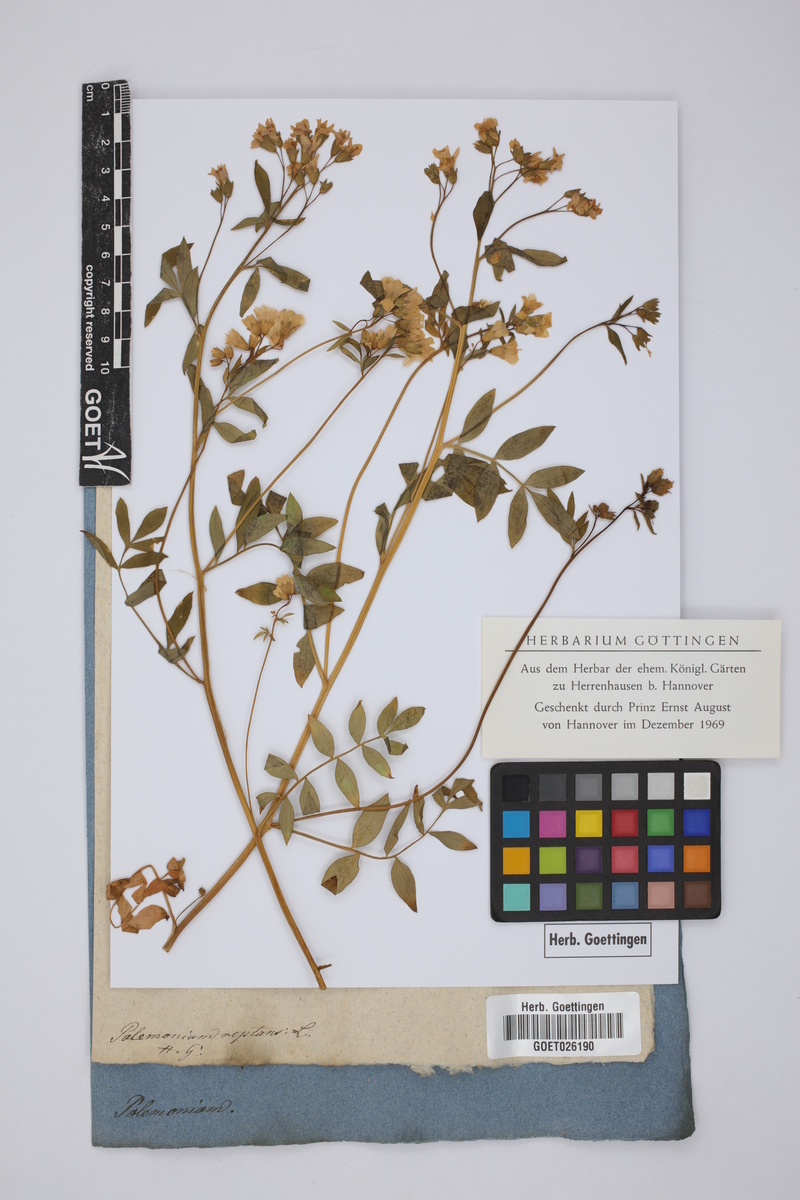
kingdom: Plantae
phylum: Tracheophyta
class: Magnoliopsida
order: Ericales
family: Polemoniaceae
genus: Polemonium
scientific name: Polemonium reptans
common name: Creeping jacob's-ladder
